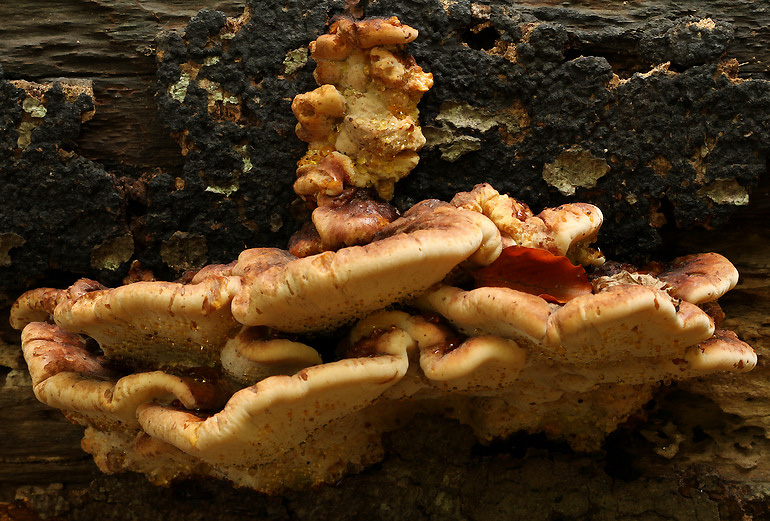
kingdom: Fungi
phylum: Basidiomycota
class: Agaricomycetes
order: Polyporales
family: Ischnodermataceae
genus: Ischnoderma
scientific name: Ischnoderma resinosum
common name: løv-tjæreporesvamp
